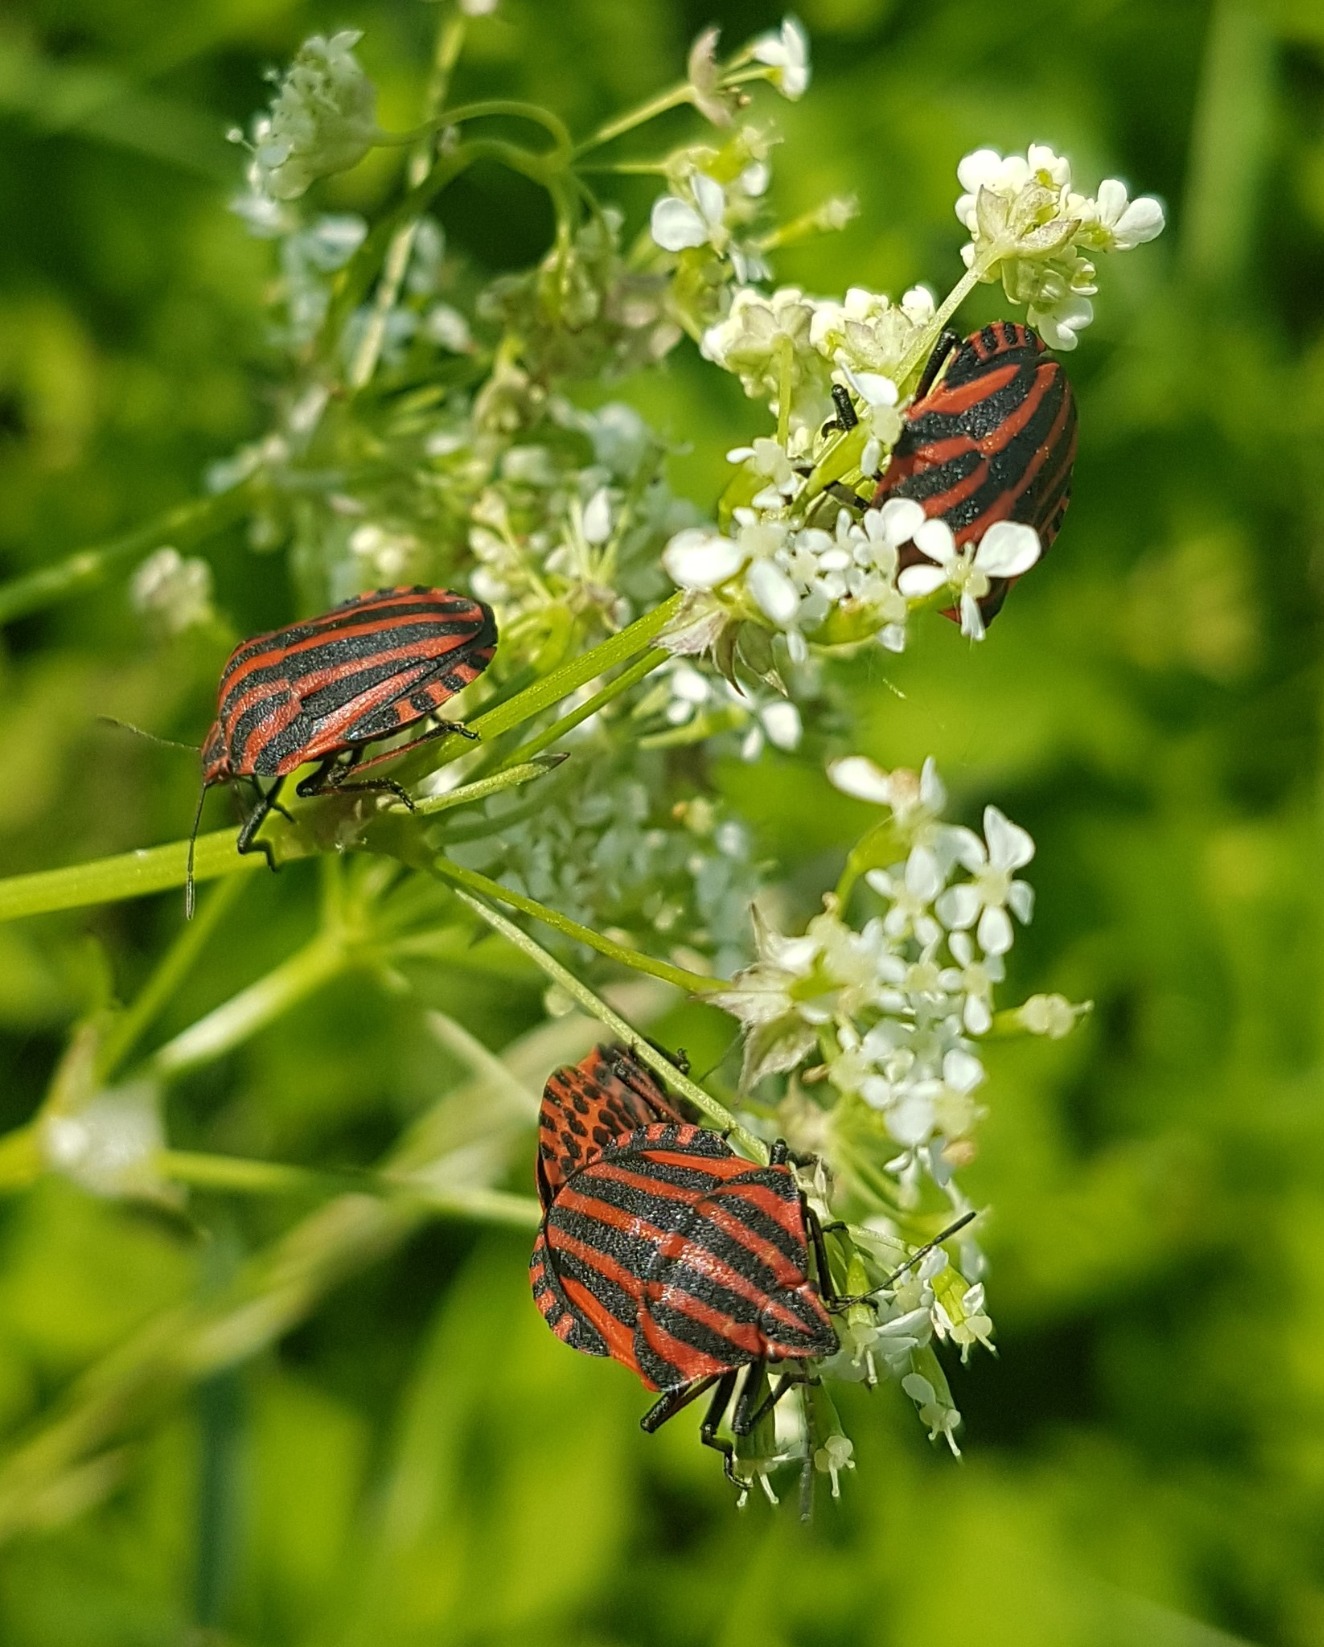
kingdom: Animalia
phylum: Arthropoda
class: Insecta
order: Hemiptera
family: Pentatomidae
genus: Graphosoma
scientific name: Graphosoma italicum
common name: Stribetæge
